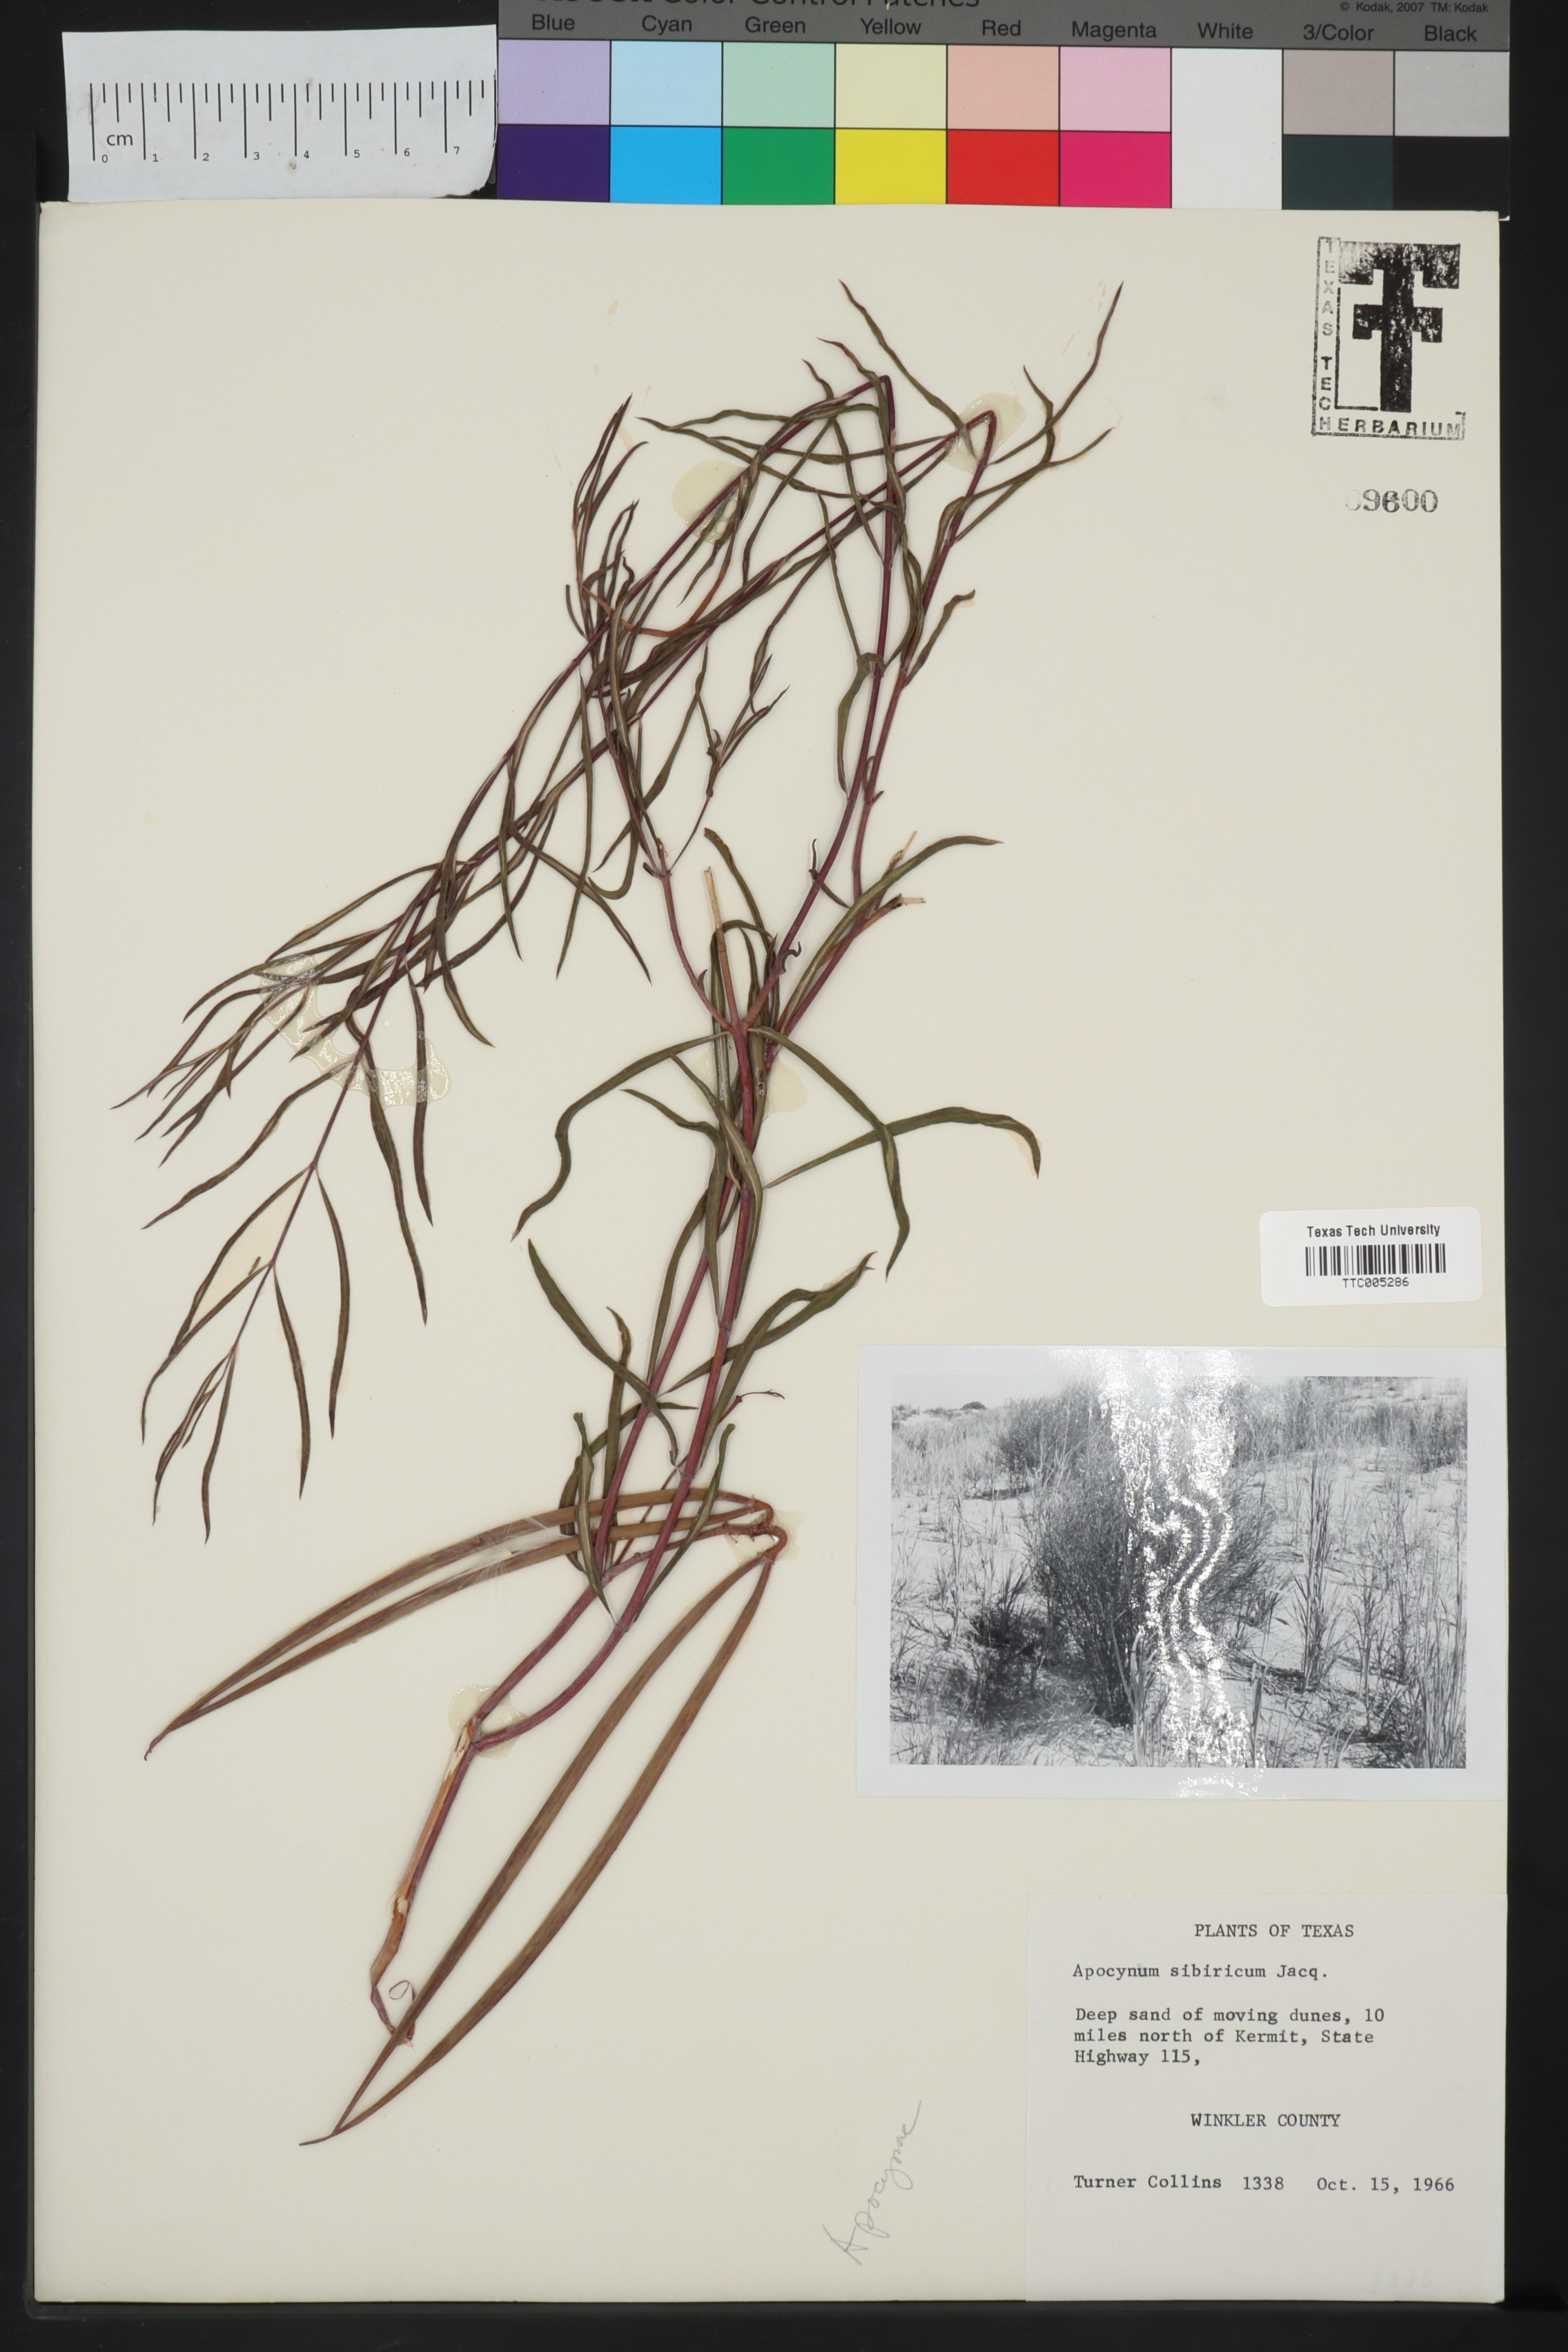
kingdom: Plantae
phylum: Tracheophyta
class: Magnoliopsida
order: Gentianales
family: Apocynaceae
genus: Apocynum
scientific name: Apocynum cannabinum
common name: Hemp dogbane
